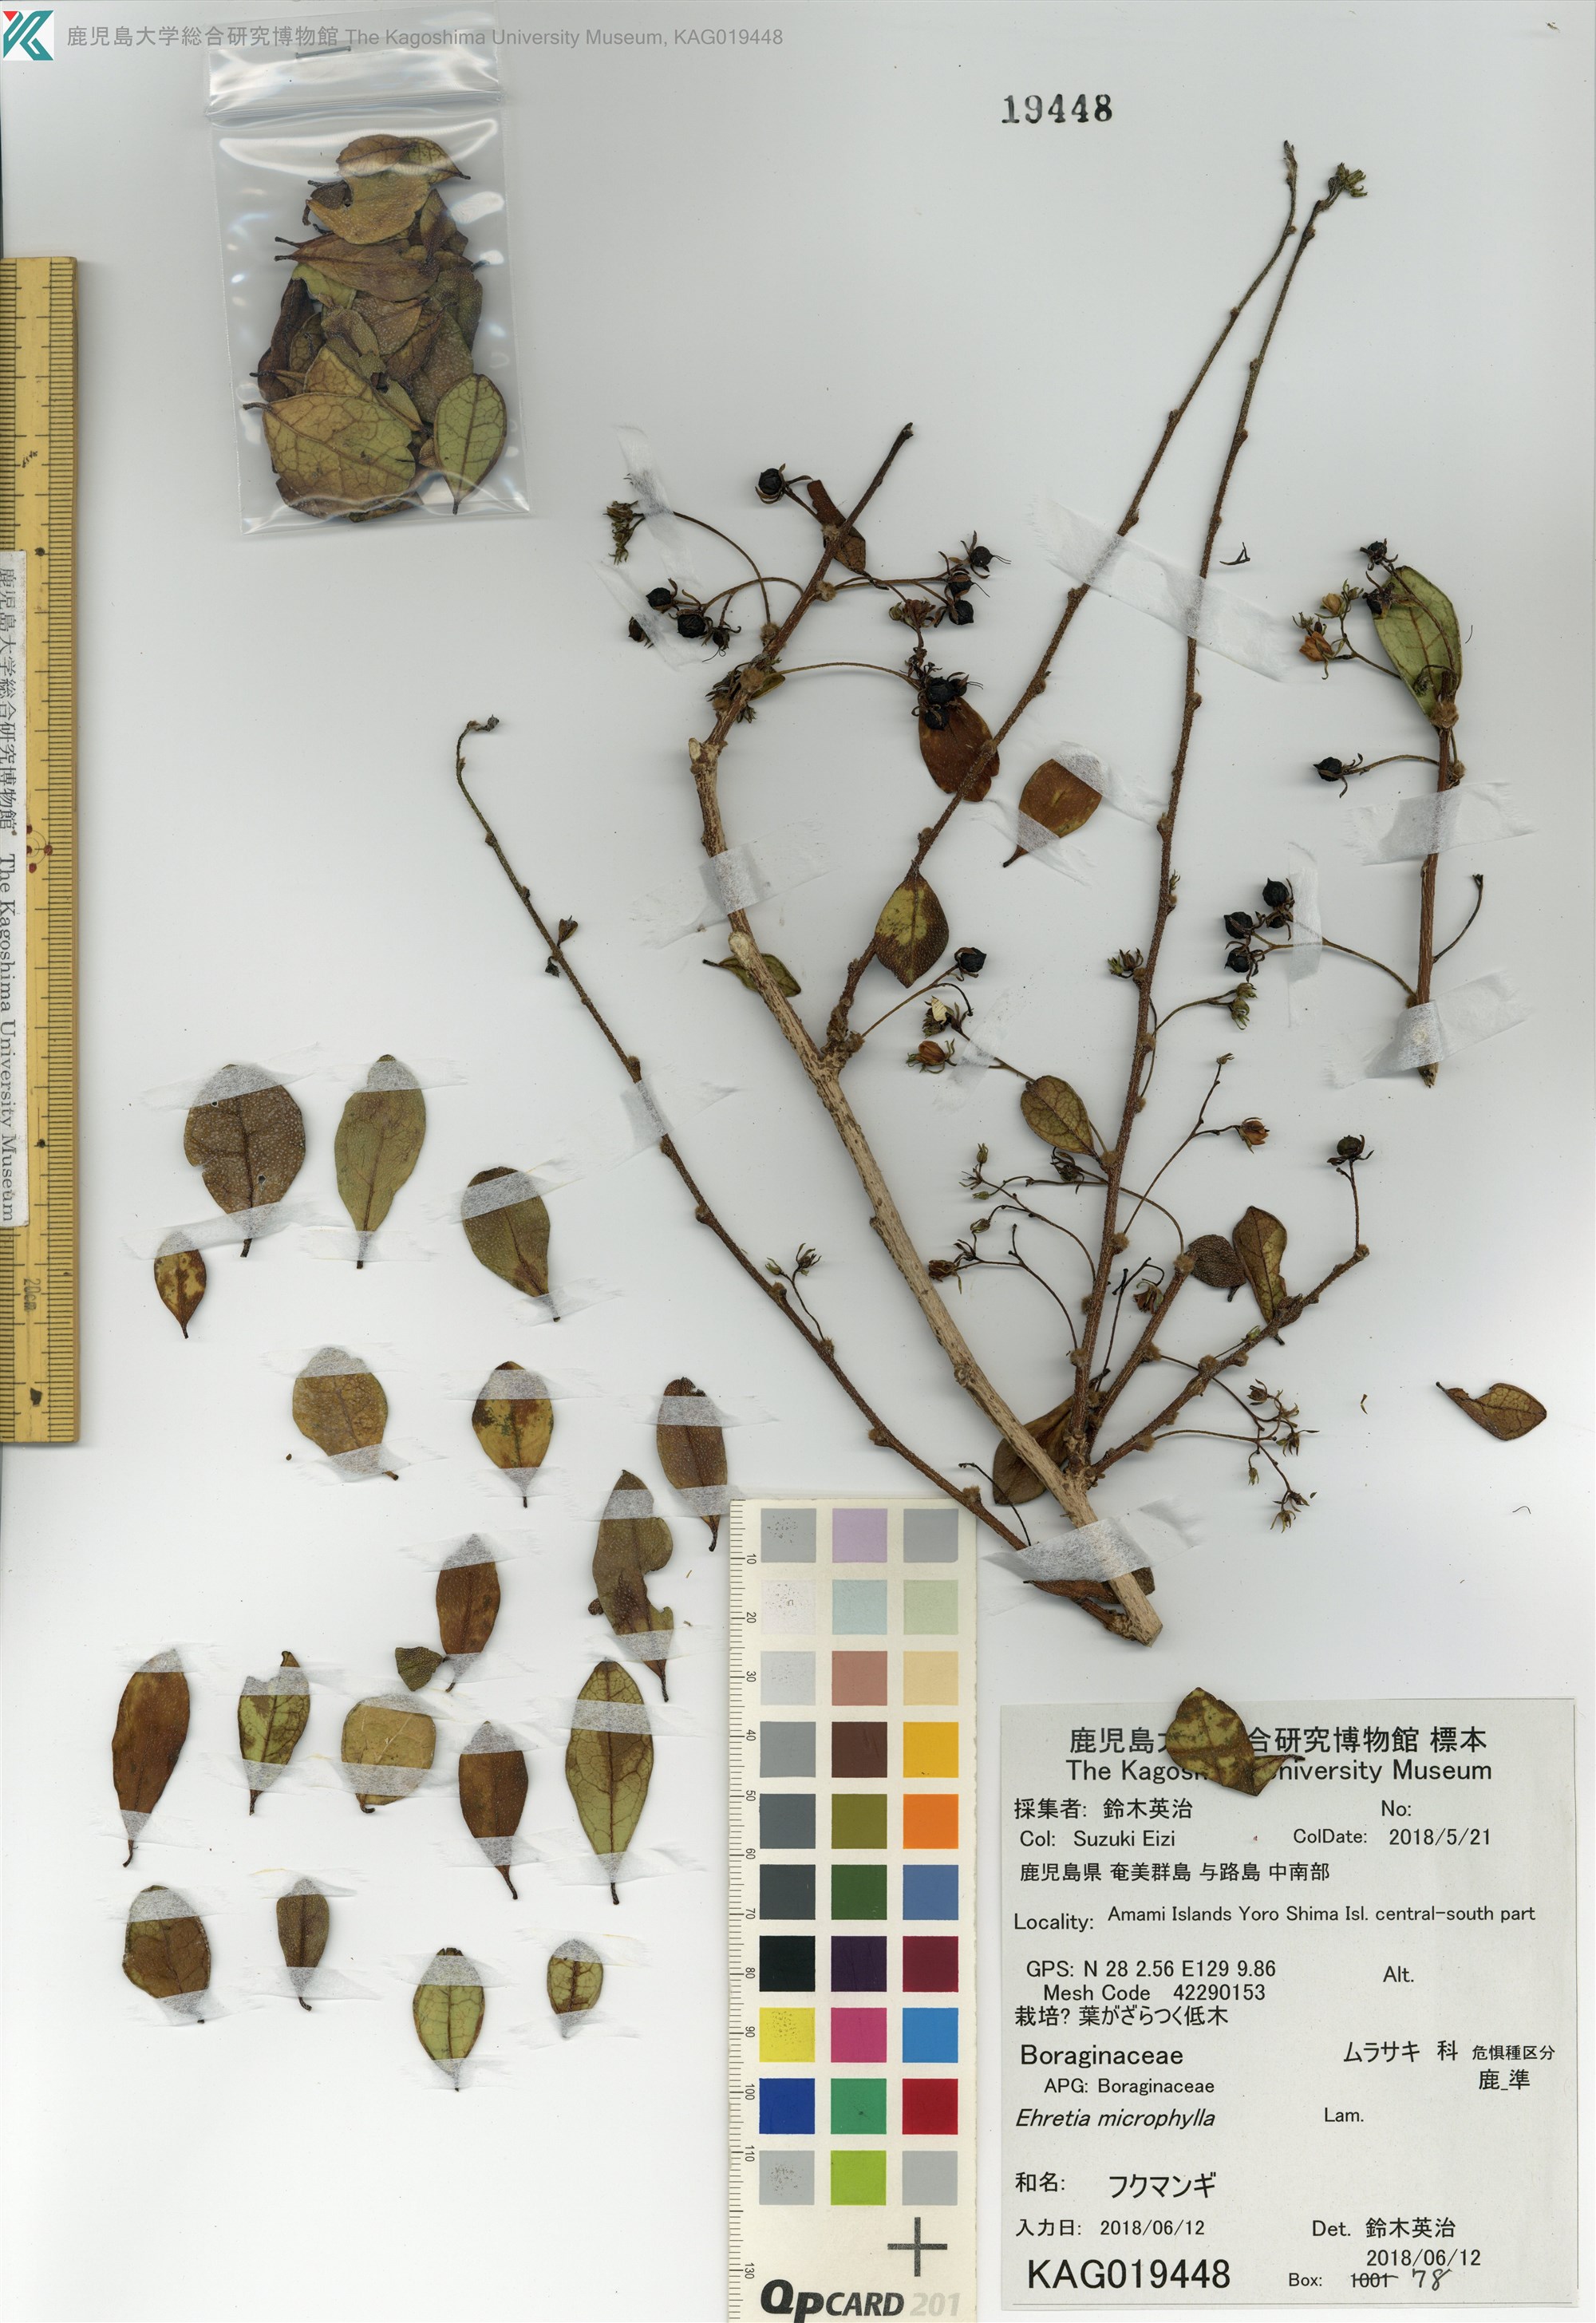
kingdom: Plantae
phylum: Tracheophyta
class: Magnoliopsida
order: Boraginales
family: Ehretiaceae
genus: Ehretia
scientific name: Ehretia microphylla
